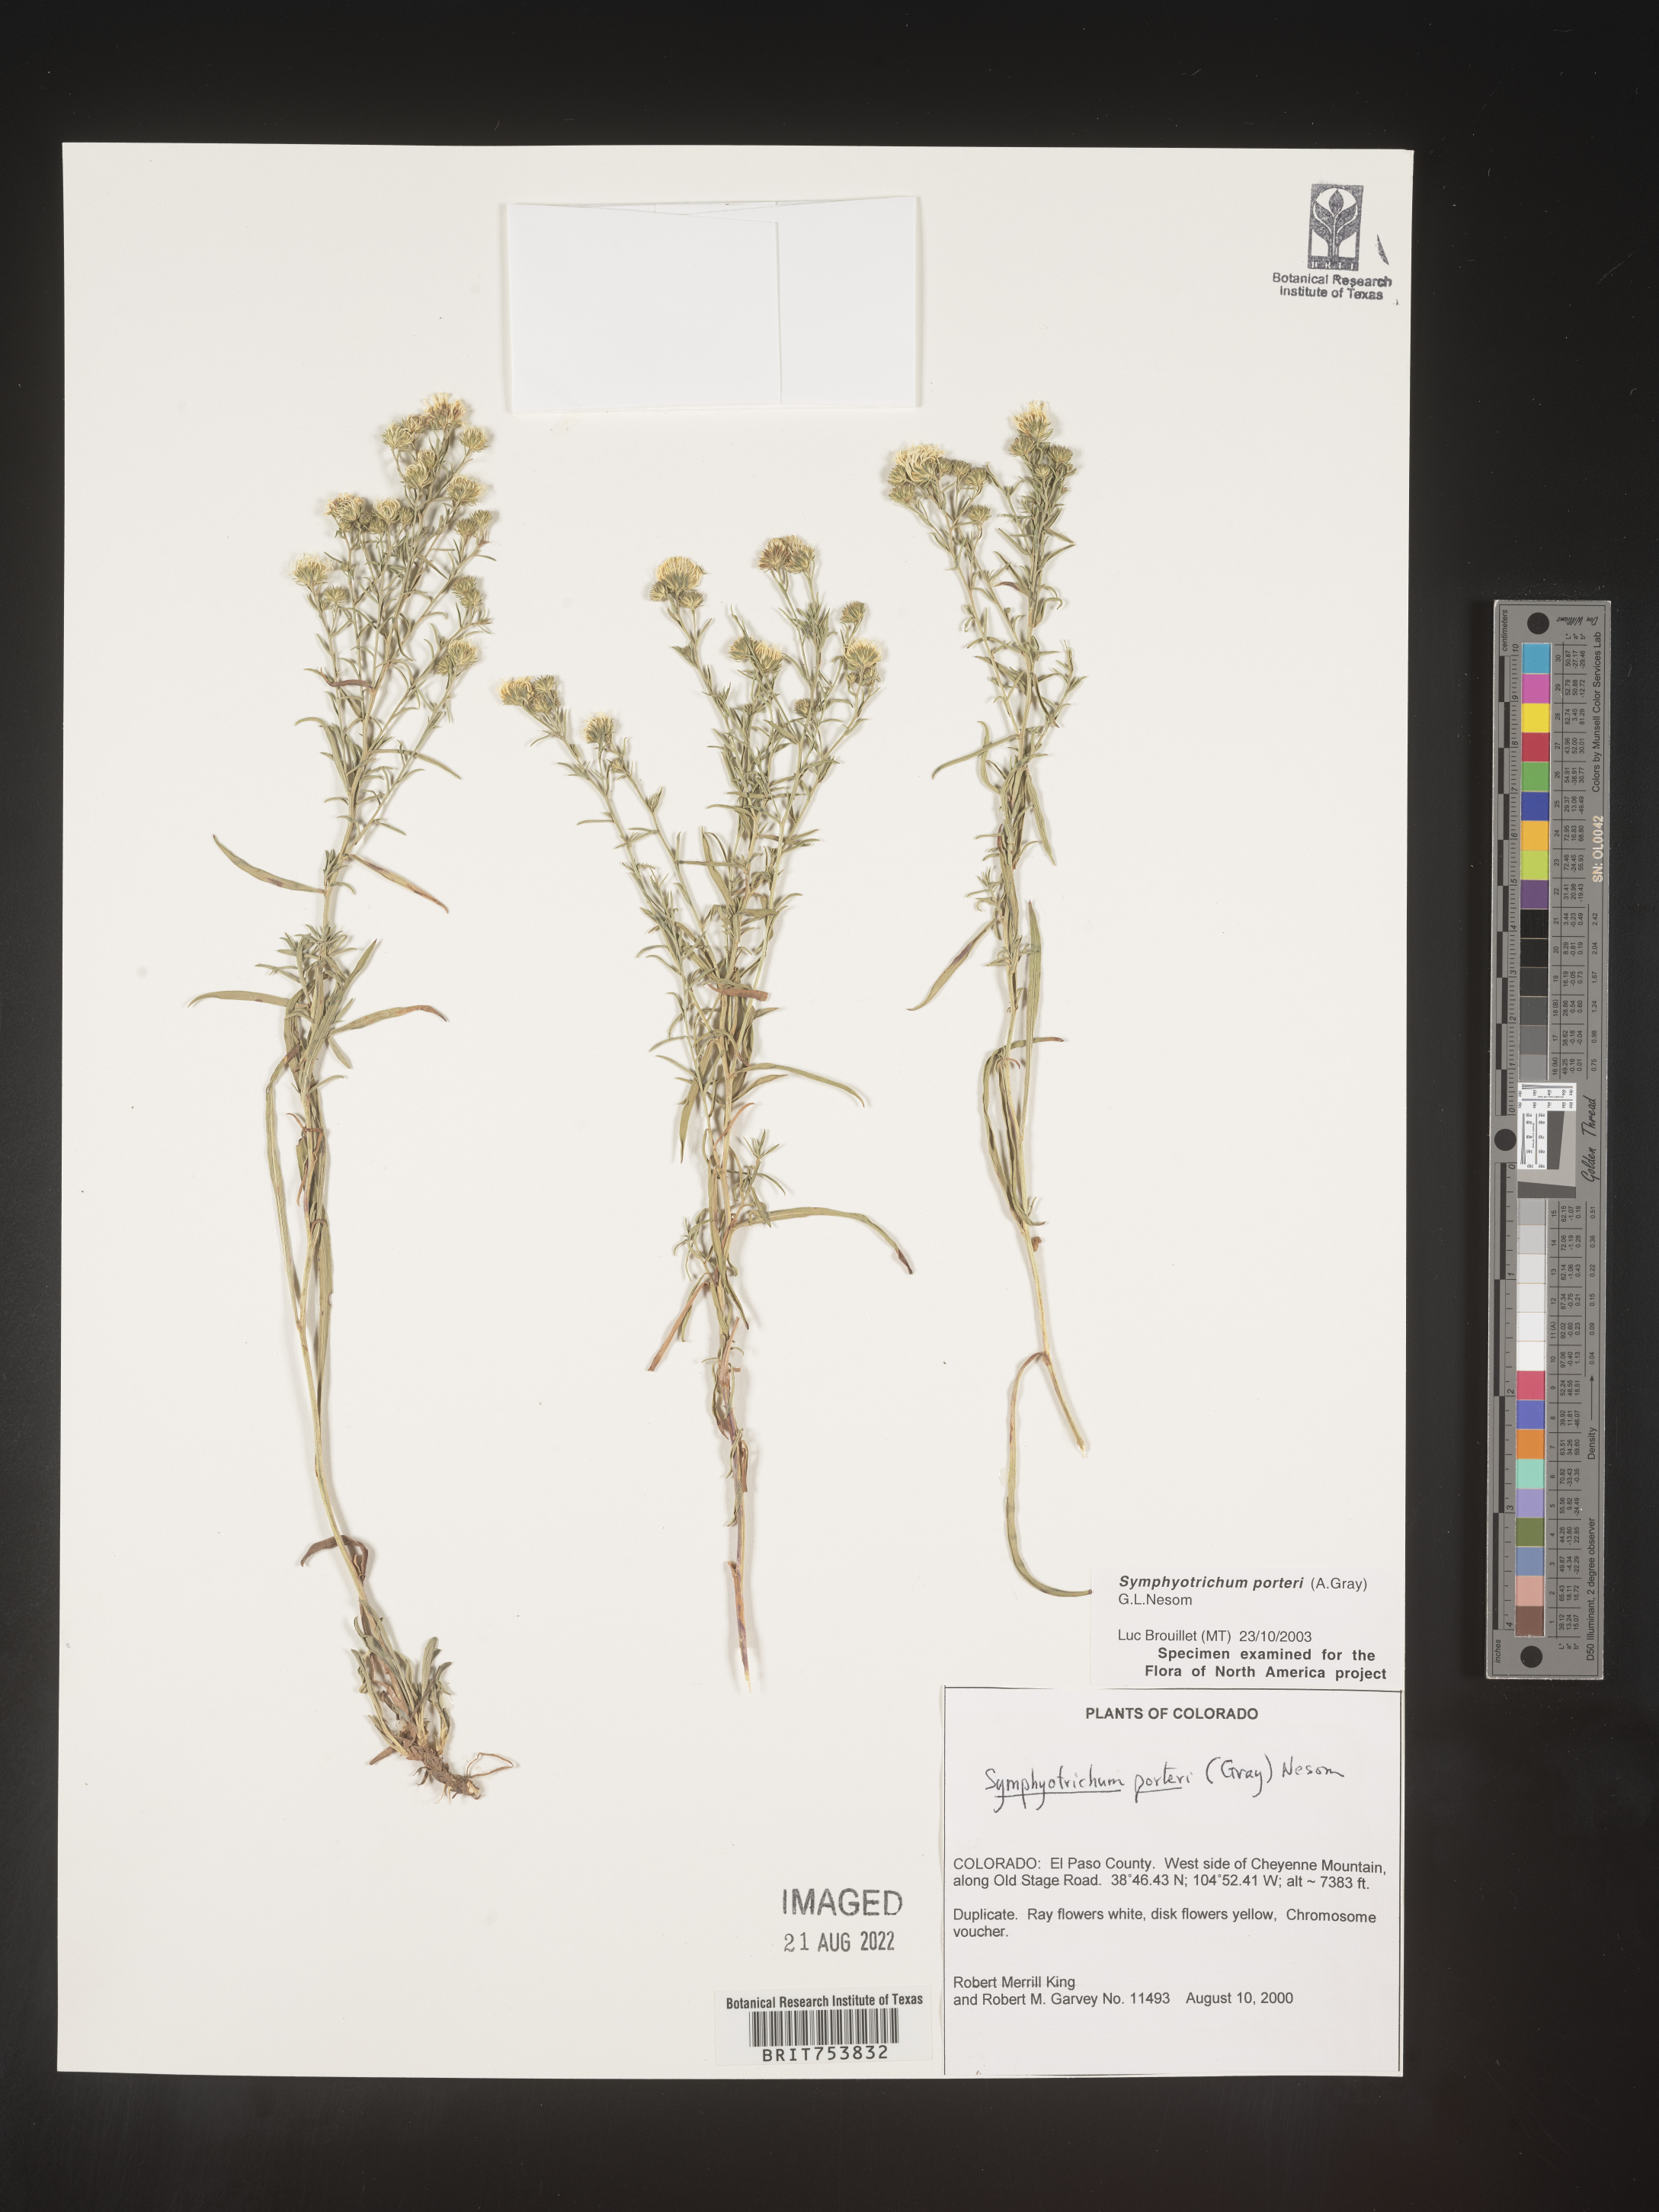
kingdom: Plantae
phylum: Tracheophyta
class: Magnoliopsida
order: Asterales
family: Asteraceae
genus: Symphyotrichum
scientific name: Symphyotrichum porteri
